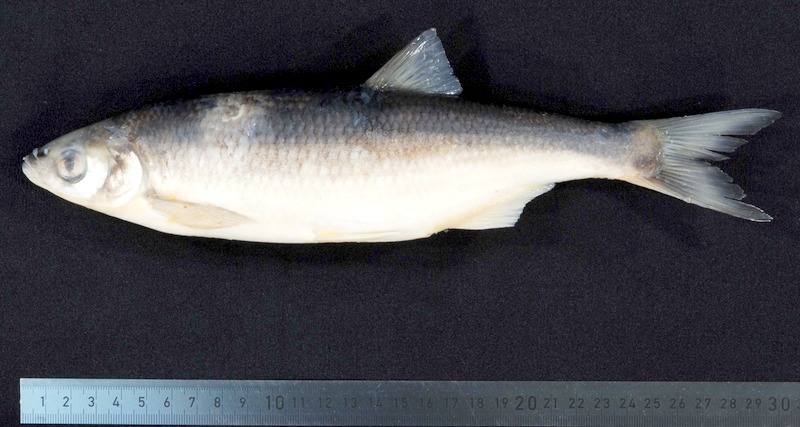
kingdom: Animalia
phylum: Chordata
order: Cypriniformes
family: Cyprinidae
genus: Alburnus
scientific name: Alburnus mento
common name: Seelaube
